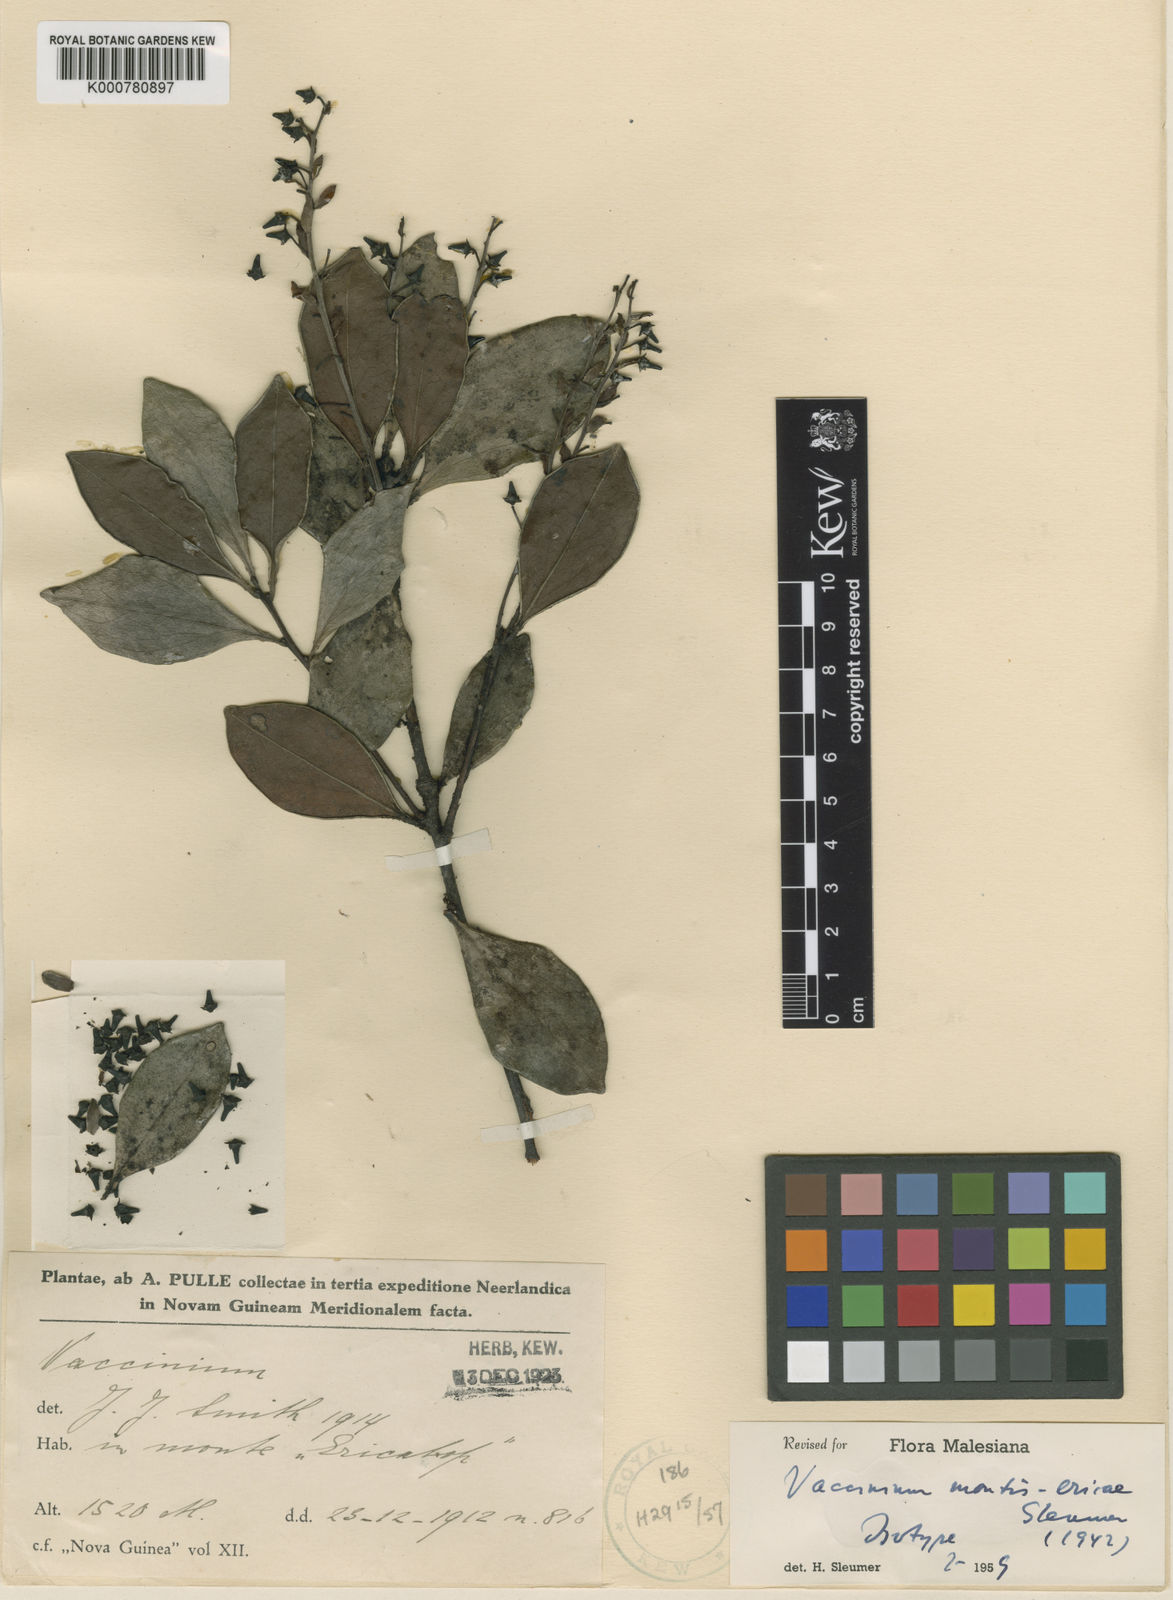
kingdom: Plantae
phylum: Tracheophyta
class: Magnoliopsida
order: Ericales
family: Ericaceae
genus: Vaccinium
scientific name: Vaccinium montis-ericae
